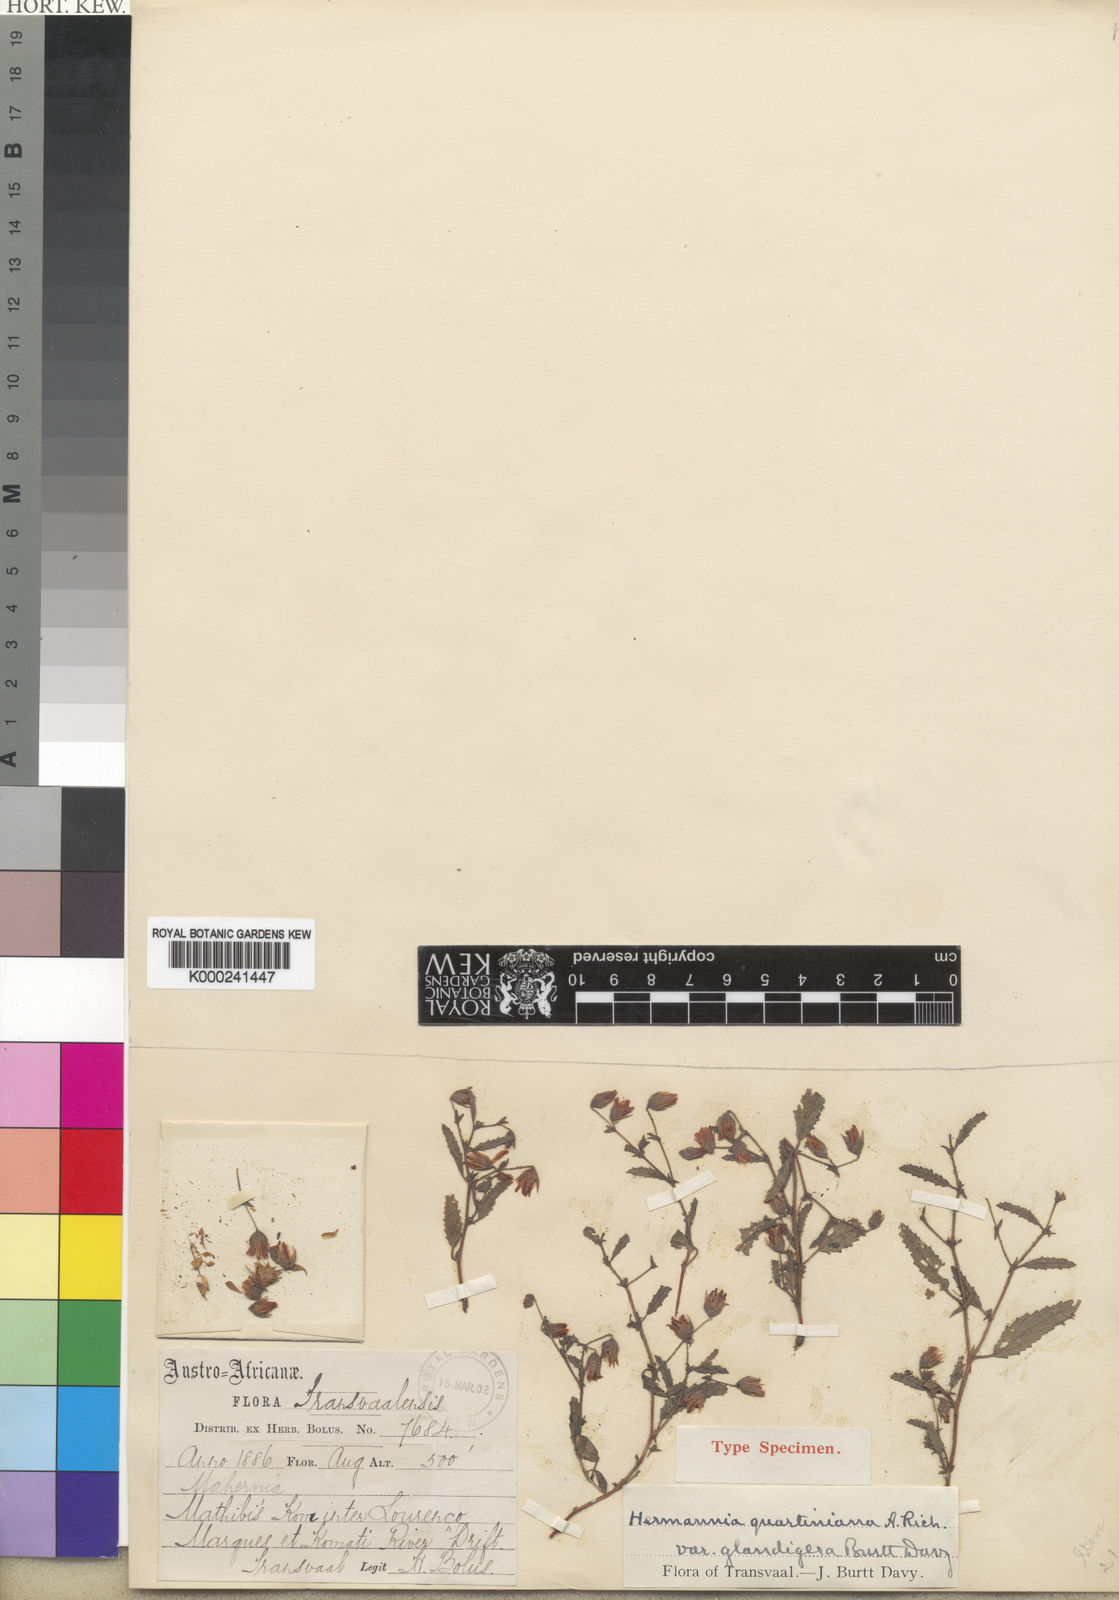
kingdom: Plantae
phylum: Tracheophyta
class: Magnoliopsida
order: Malvales
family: Malvaceae
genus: Hermannia
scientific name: Hermannia quartiniana
